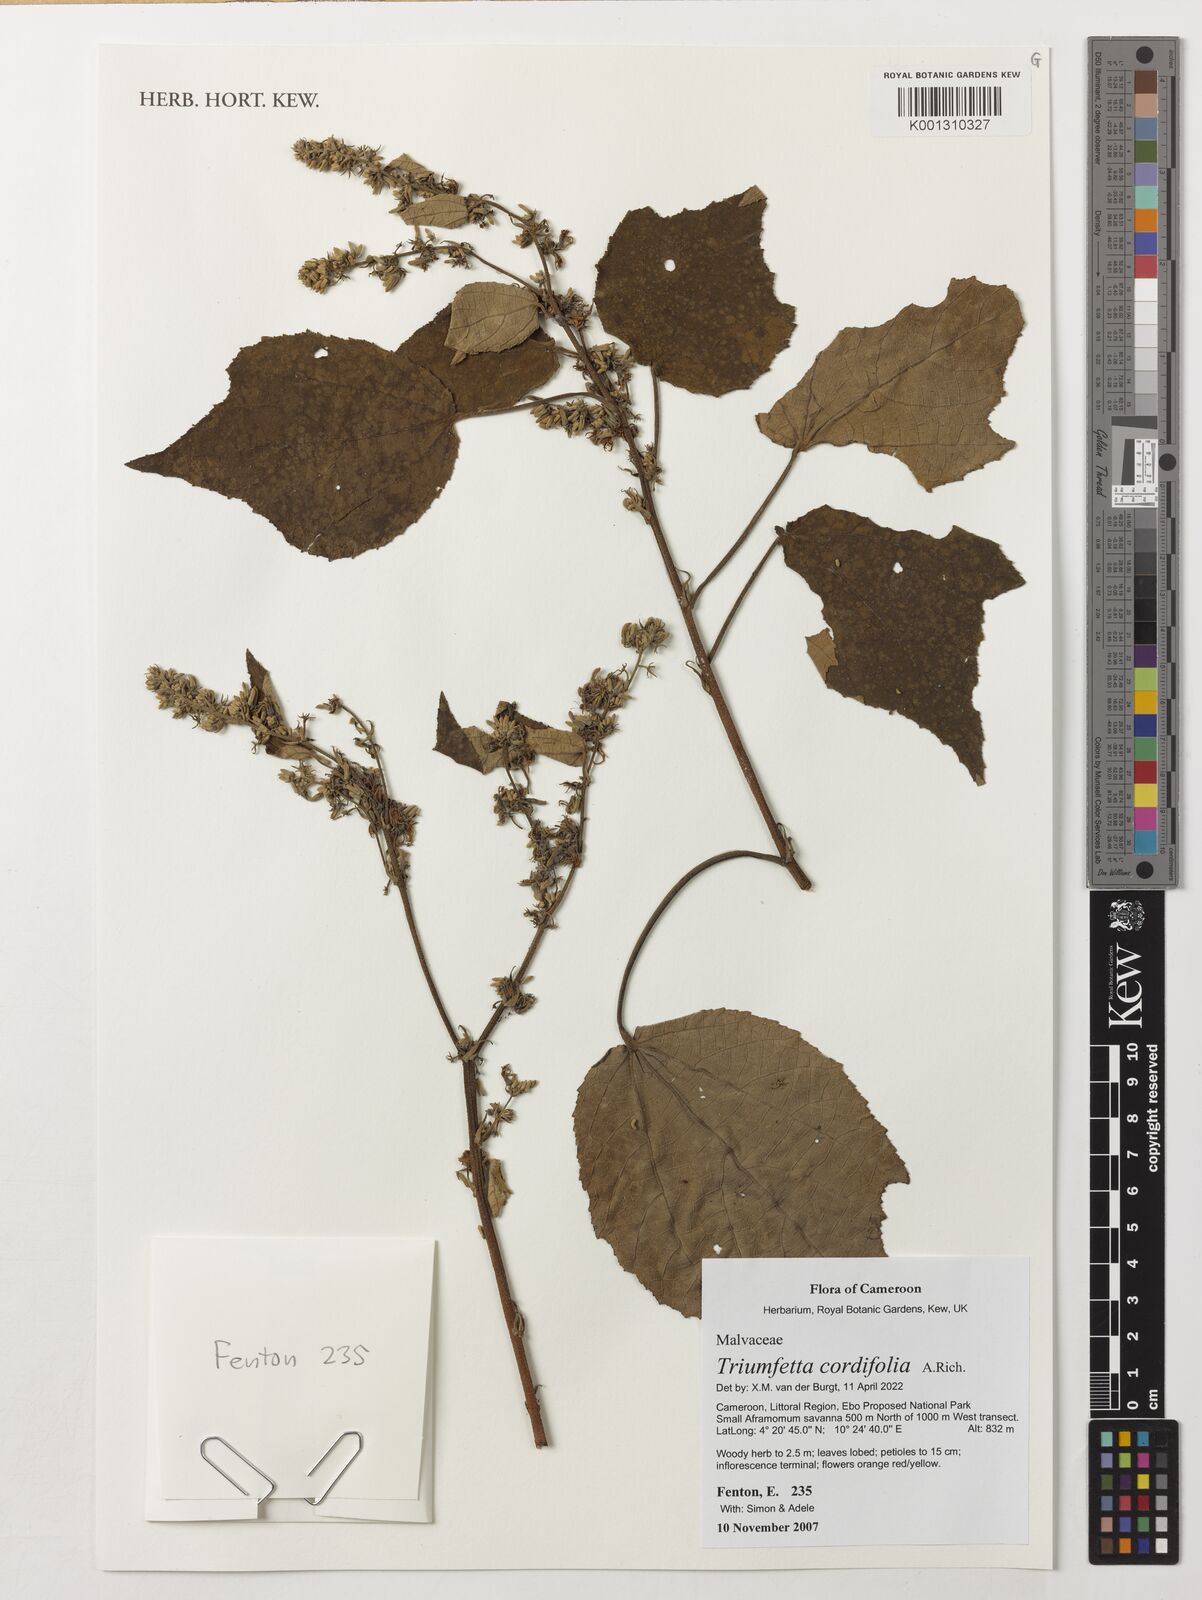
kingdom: Plantae
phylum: Tracheophyta
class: Magnoliopsida
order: Malvales
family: Malvaceae
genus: Triumfetta
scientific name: Triumfetta cordifolia
